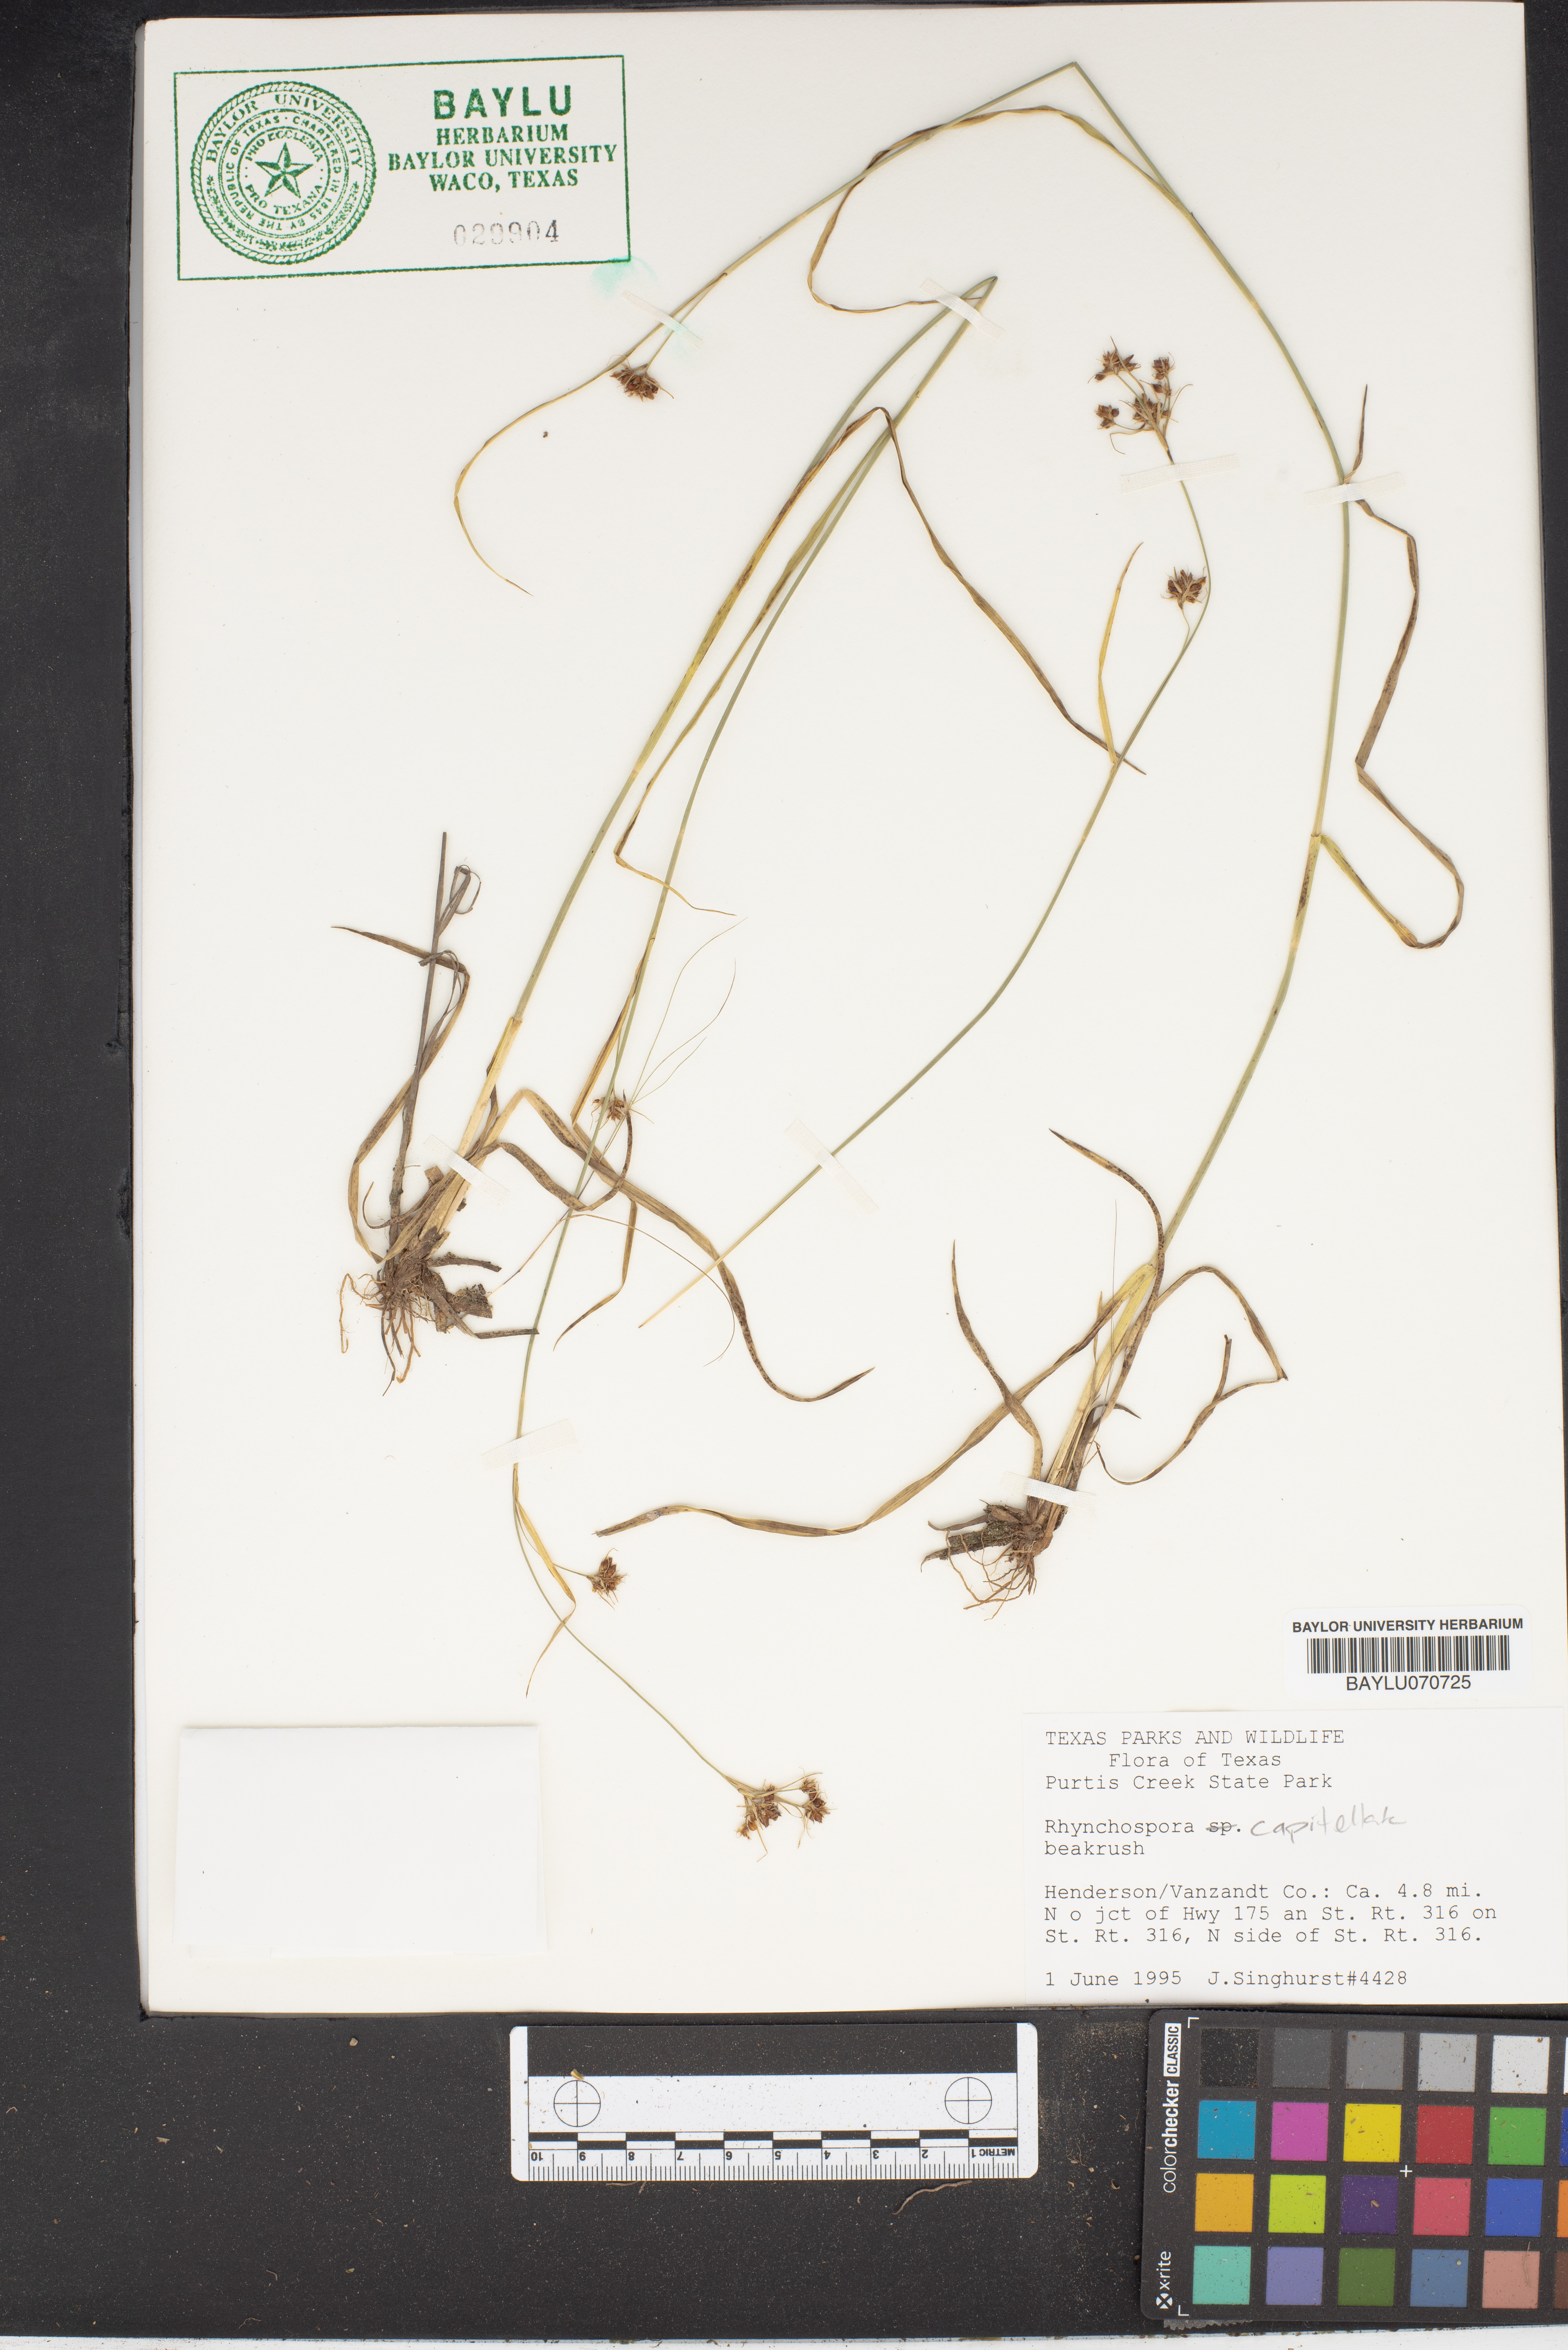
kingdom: Plantae
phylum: Tracheophyta
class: Liliopsida
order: Poales
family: Cyperaceae
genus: Rhynchospora
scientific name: Rhynchospora capitellata
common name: Brownish beaksedge
